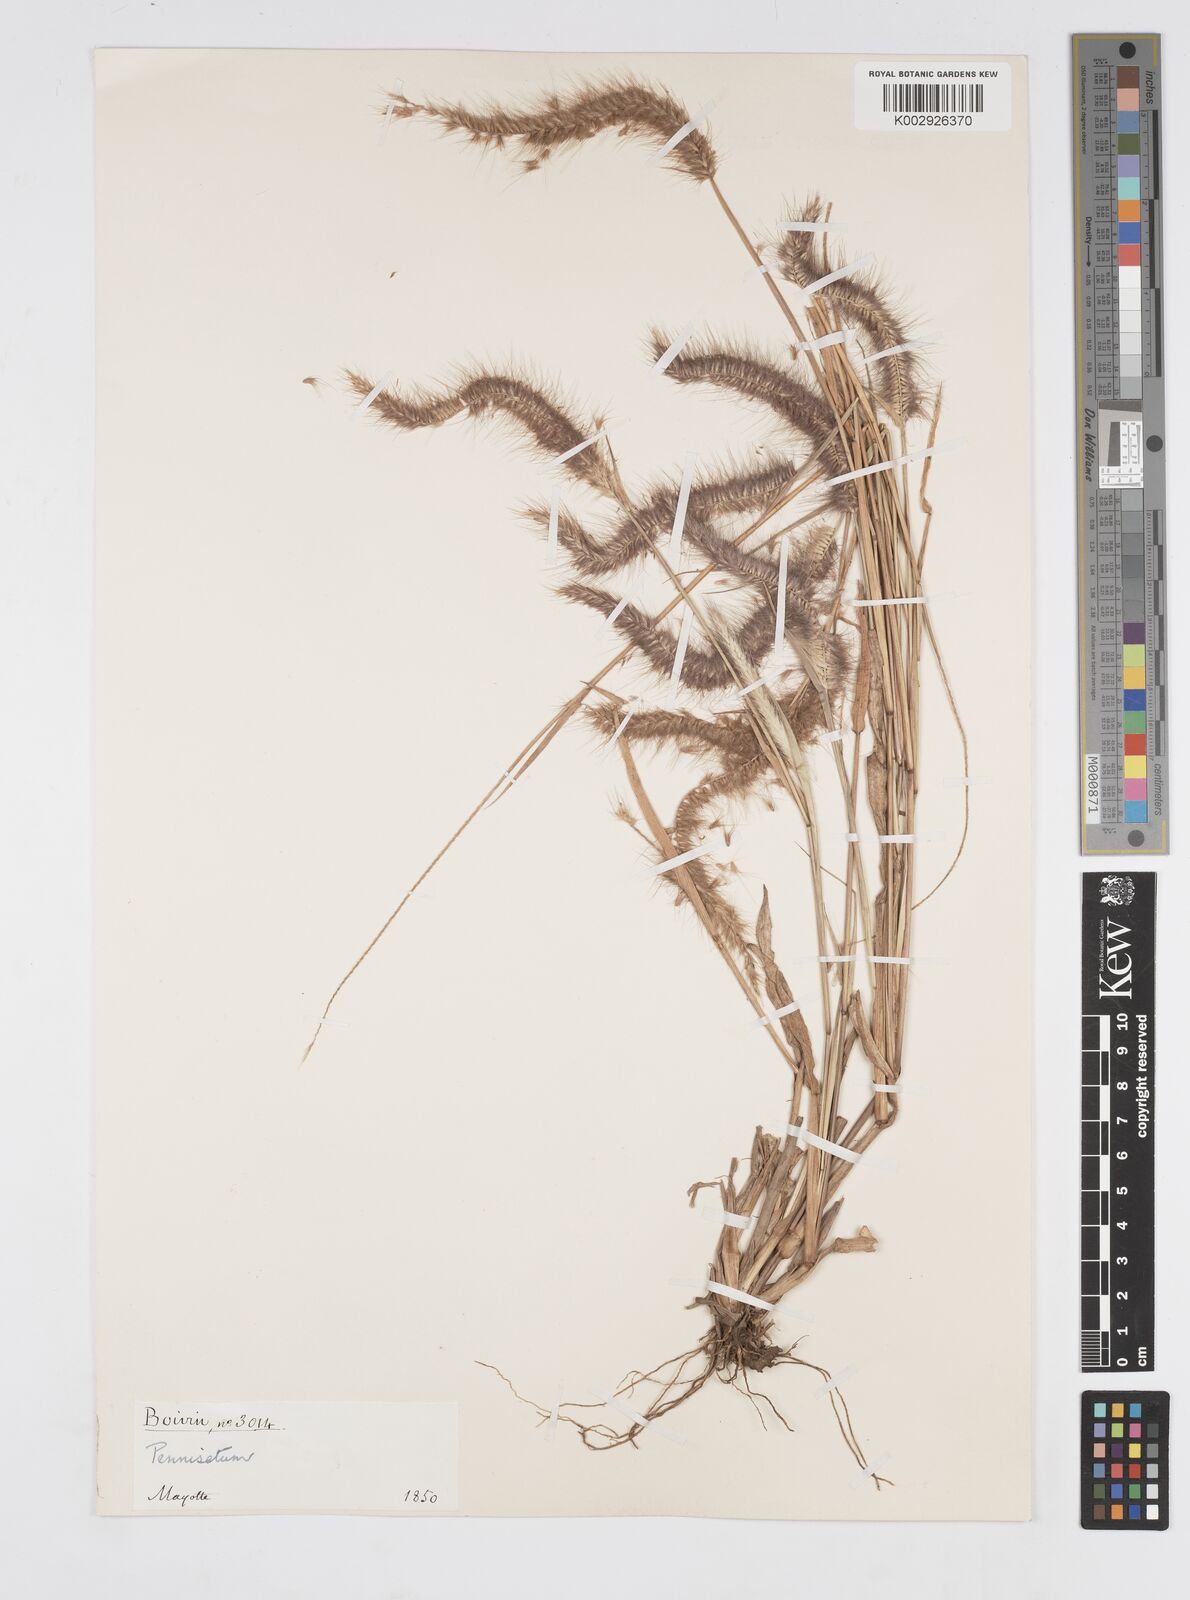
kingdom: Plantae
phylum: Tracheophyta
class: Liliopsida
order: Poales
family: Poaceae
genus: Setaria
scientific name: Setaria parviflora
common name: Knotroot bristle-grass
